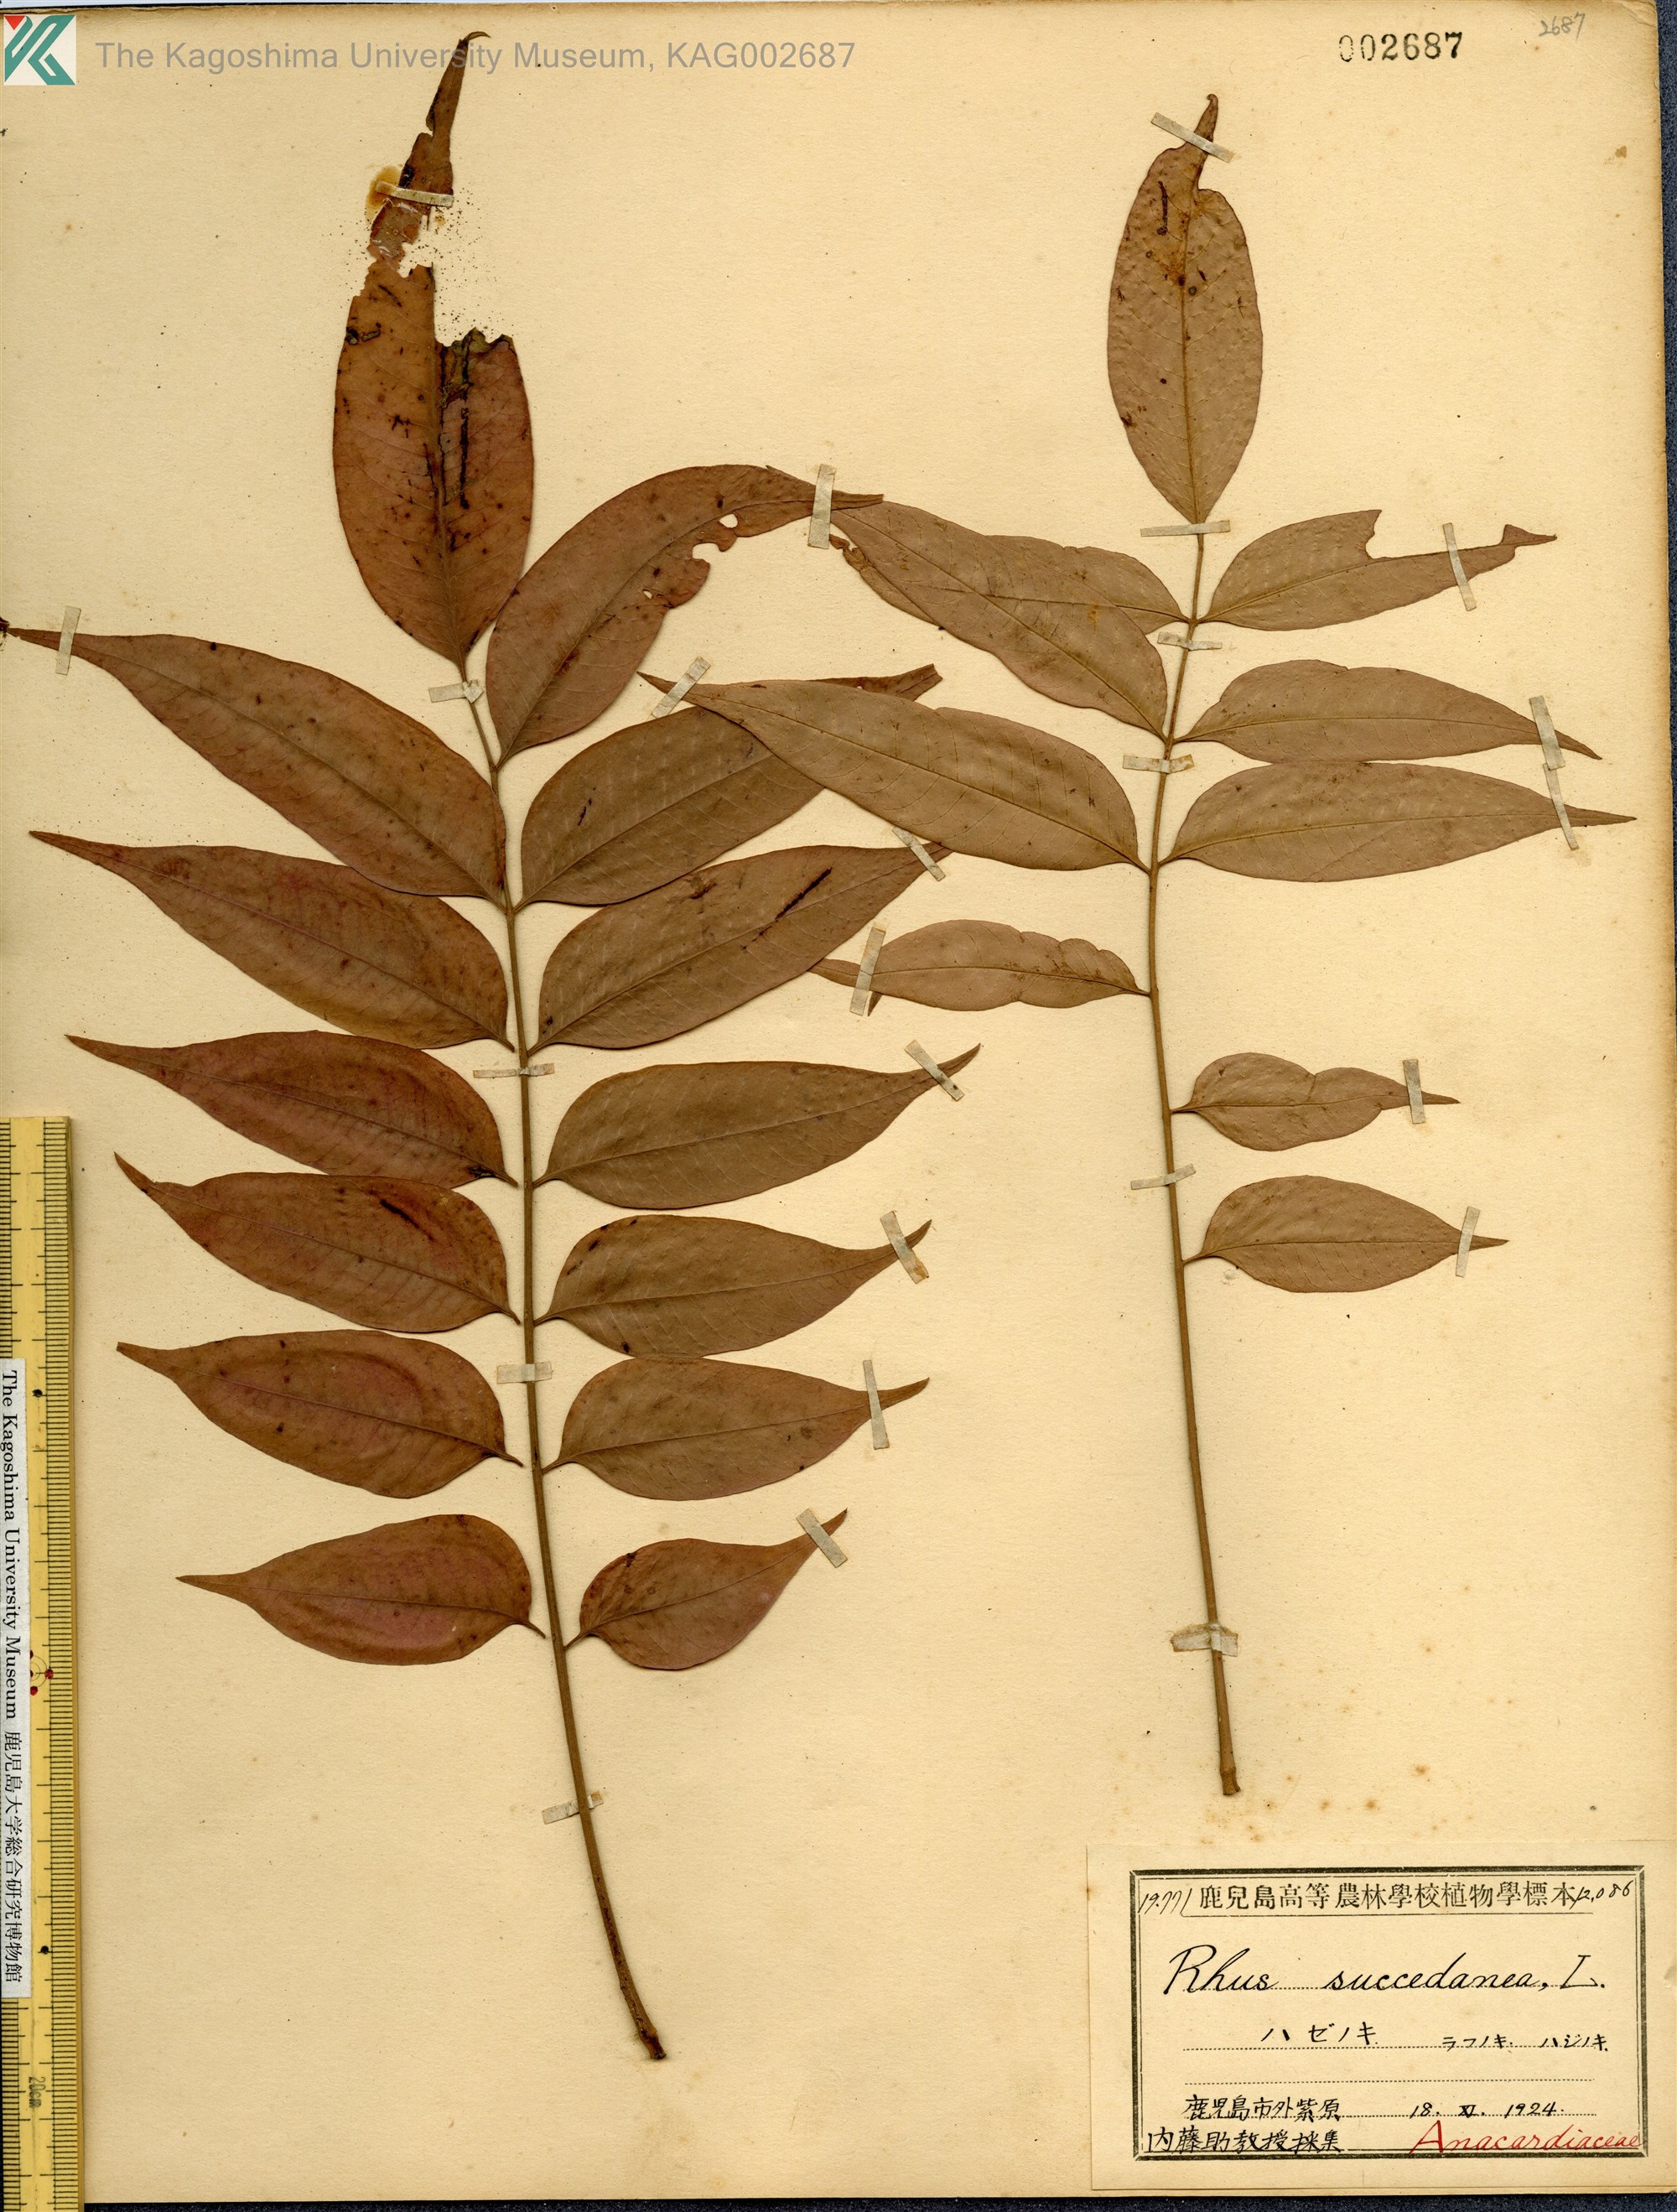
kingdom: Plantae
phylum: Tracheophyta
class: Magnoliopsida
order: Sapindales
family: Anacardiaceae
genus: Toxicodendron
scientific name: Toxicodendron succedaneum
